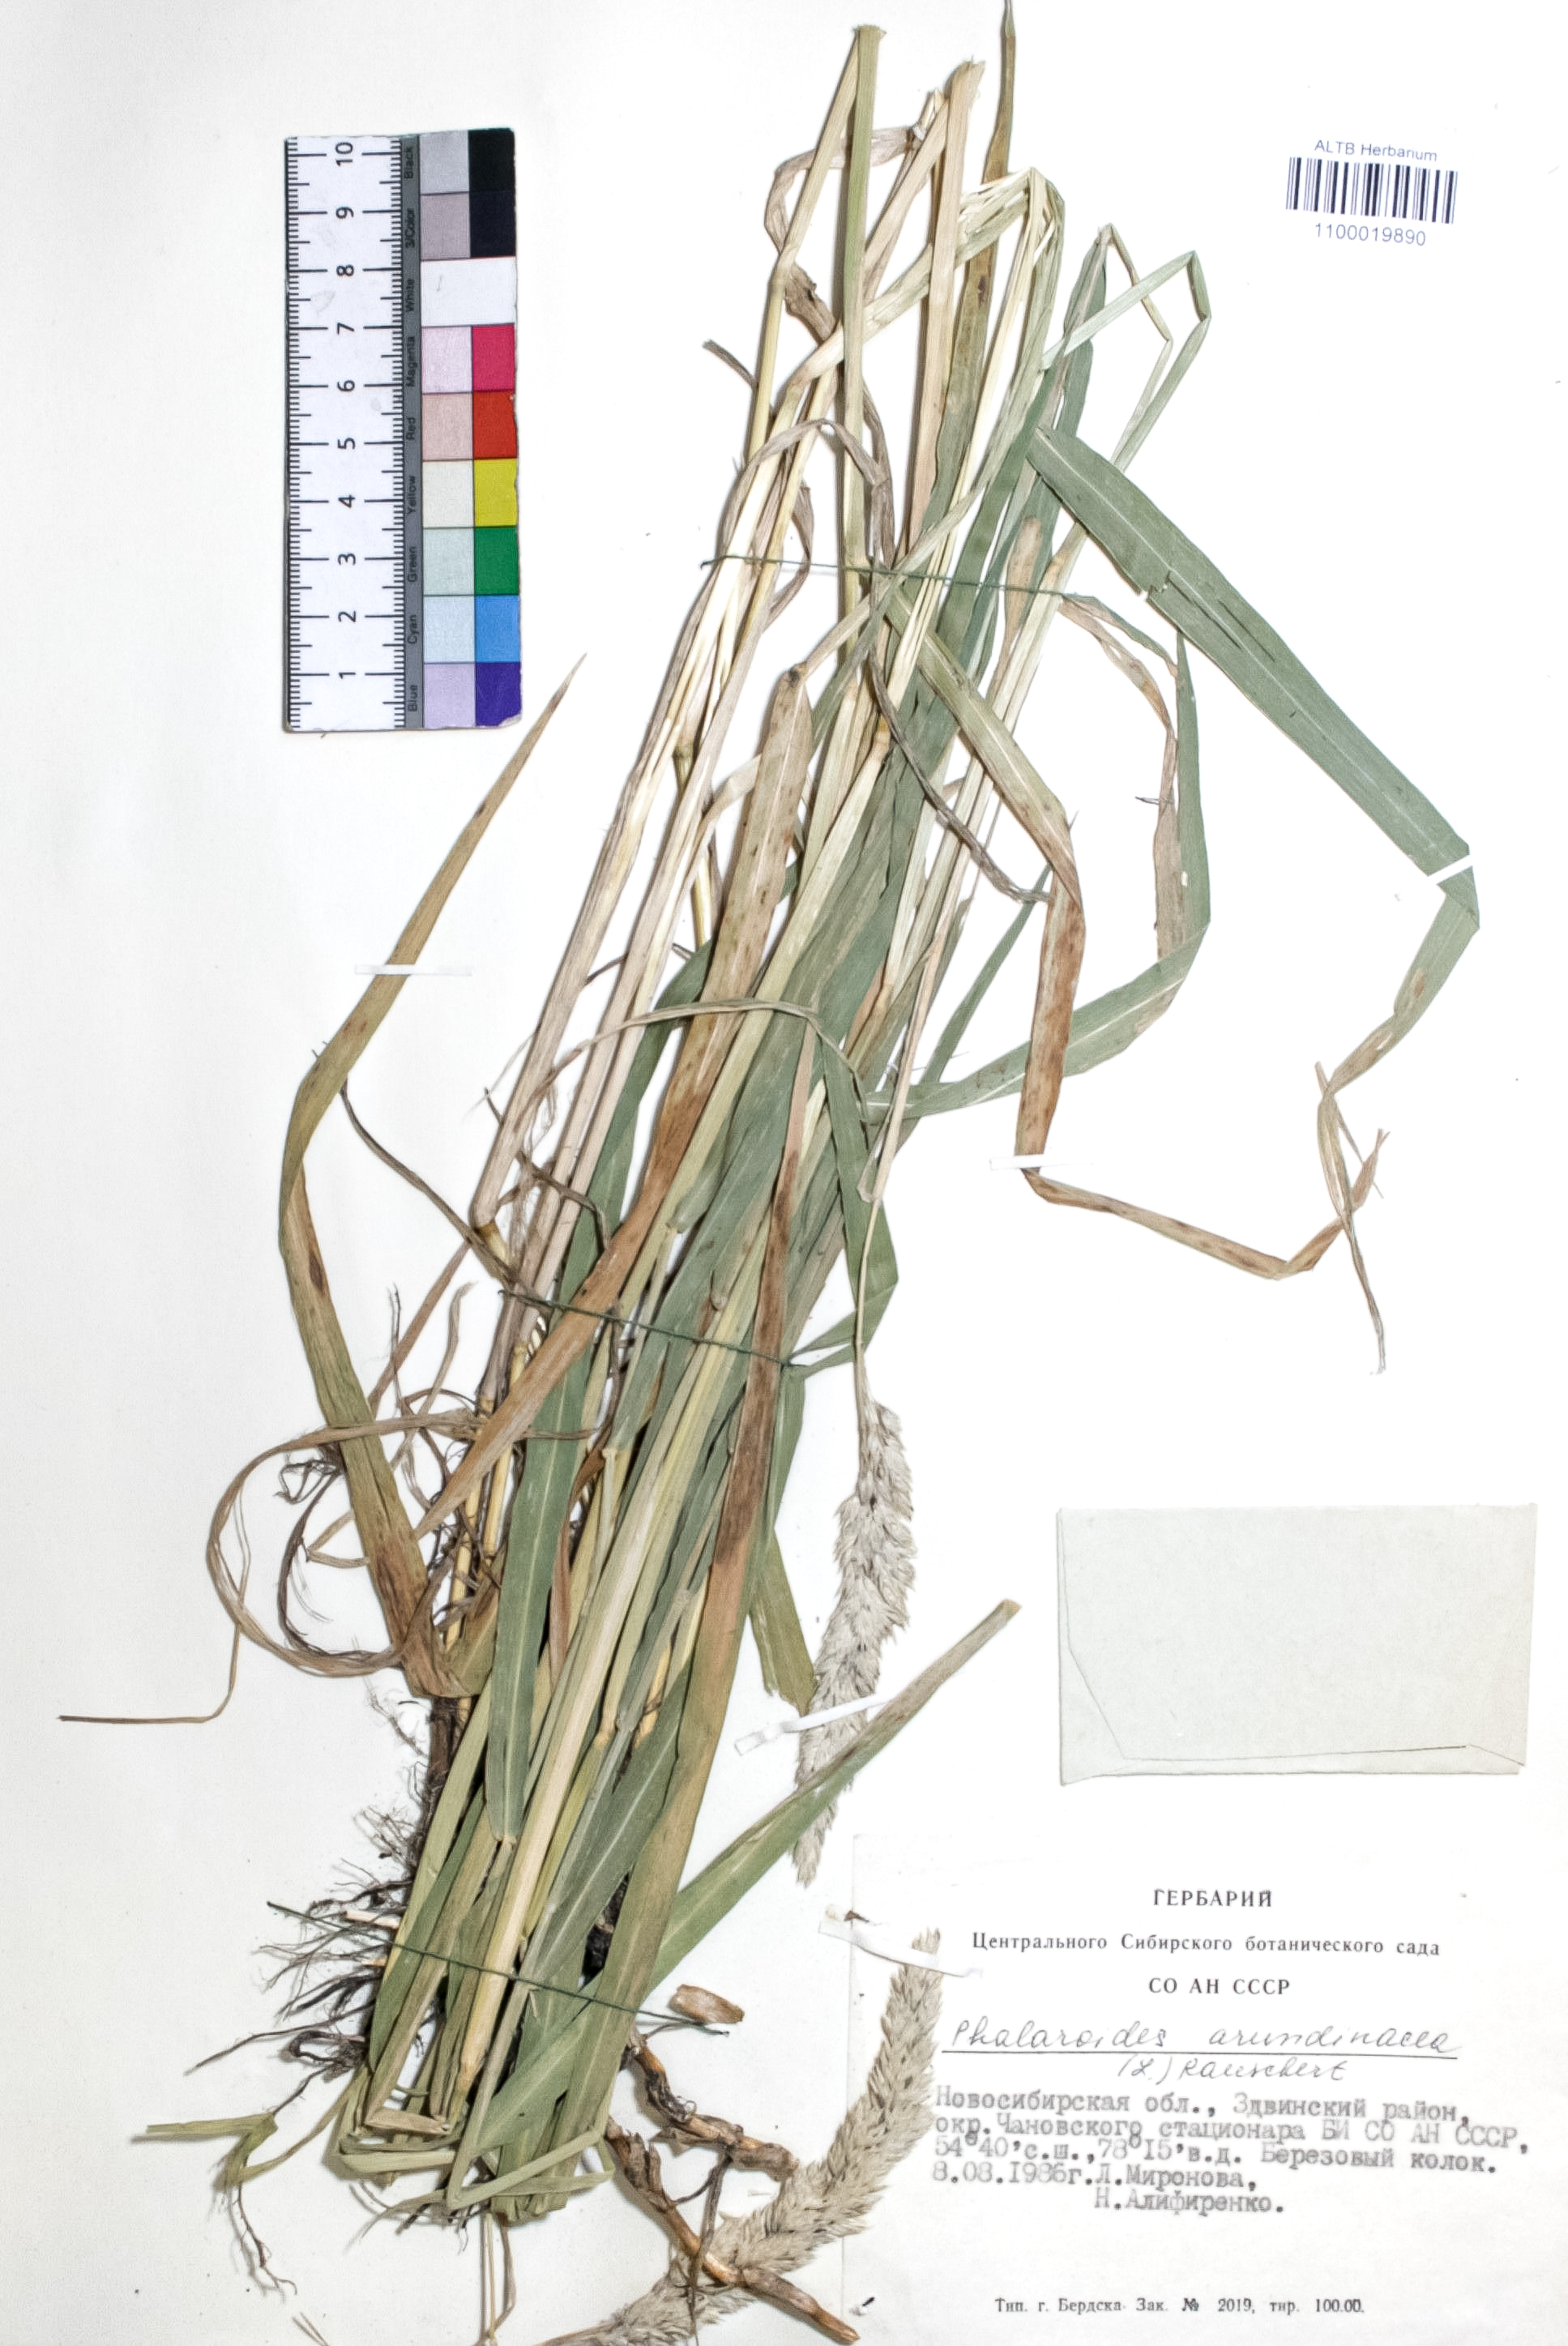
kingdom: Plantae
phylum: Tracheophyta
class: Liliopsida
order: Poales
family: Poaceae
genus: Phalaris
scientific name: Phalaris arundinacea
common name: Reed canary-grass
